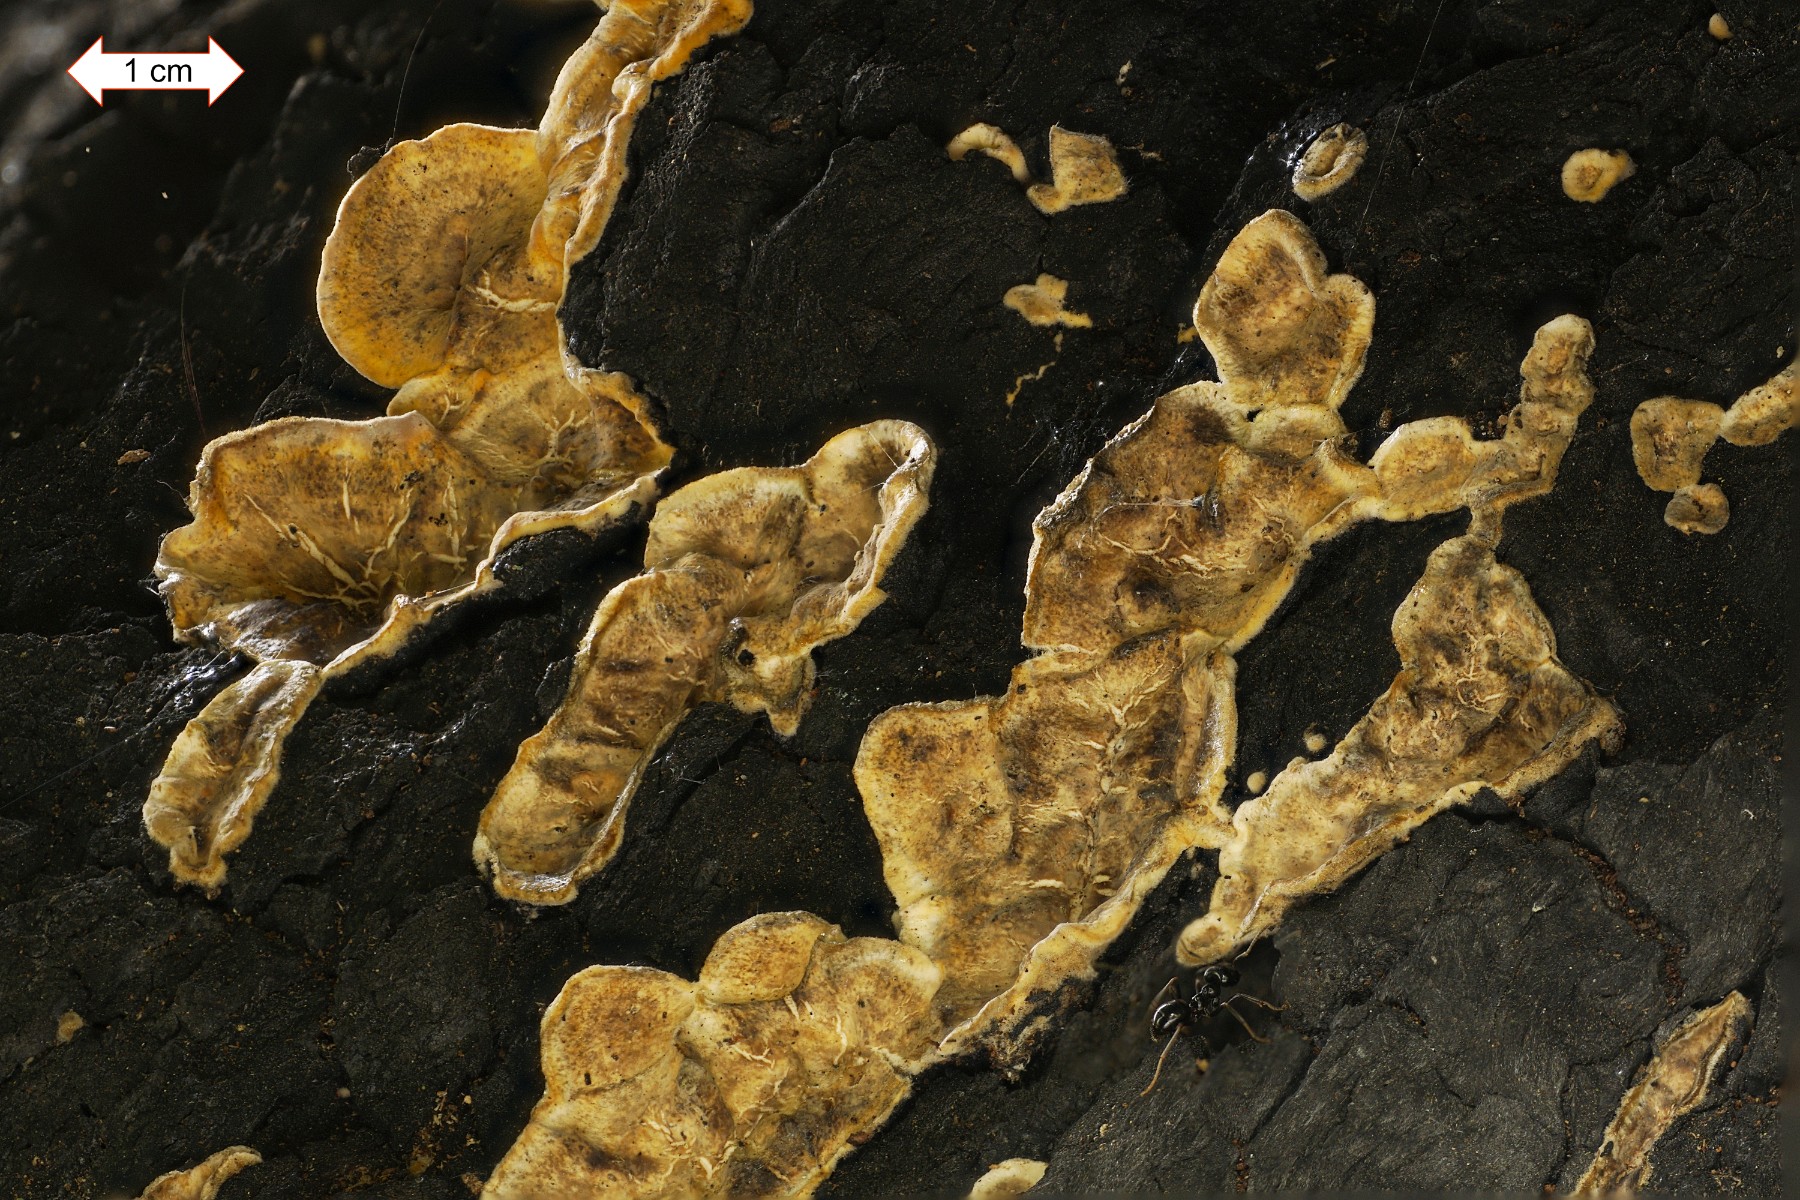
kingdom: Fungi
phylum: Basidiomycota
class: Agaricomycetes
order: Russulales
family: Stereaceae
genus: Stereum
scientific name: Stereum hirsutum
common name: håret lædersvamp
